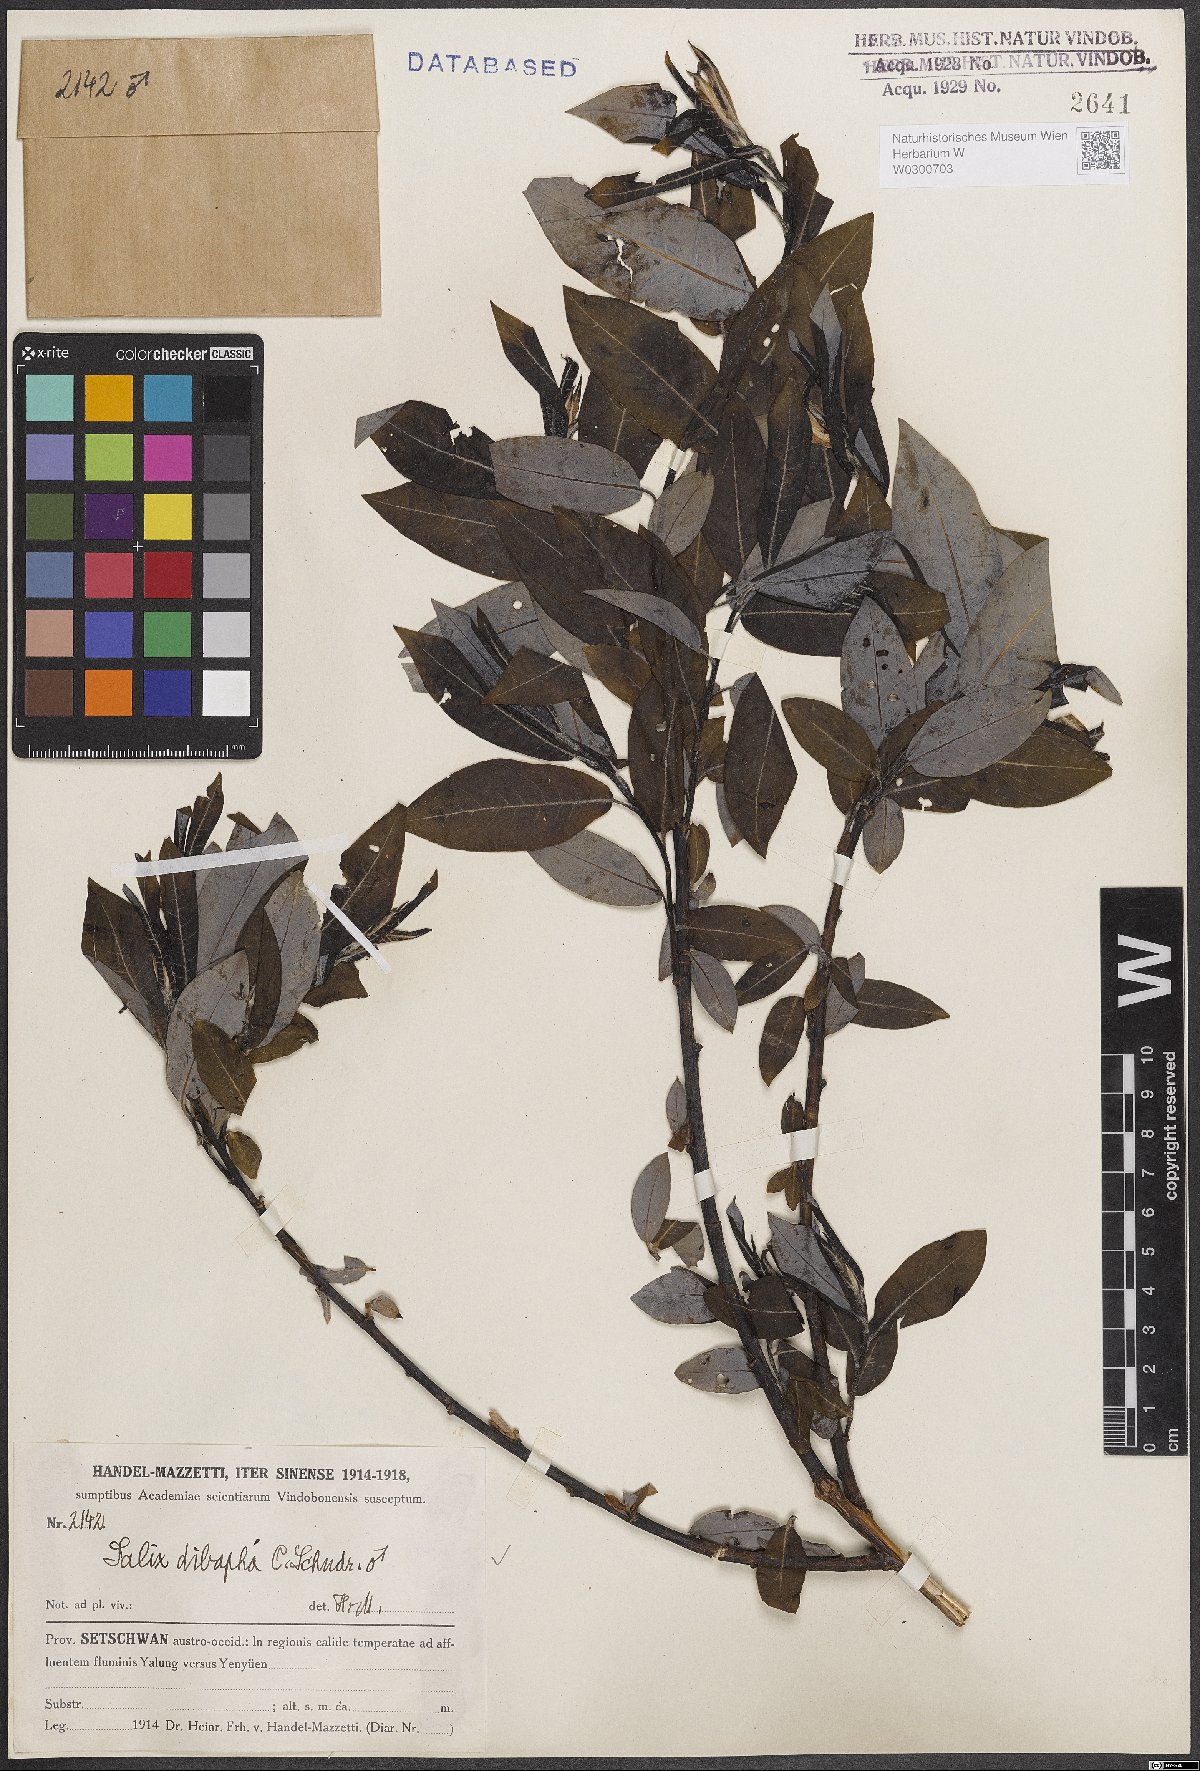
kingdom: Plantae
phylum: Tracheophyta
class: Magnoliopsida
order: Malpighiales
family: Salicaceae
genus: Salix
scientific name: Salix dibapha
